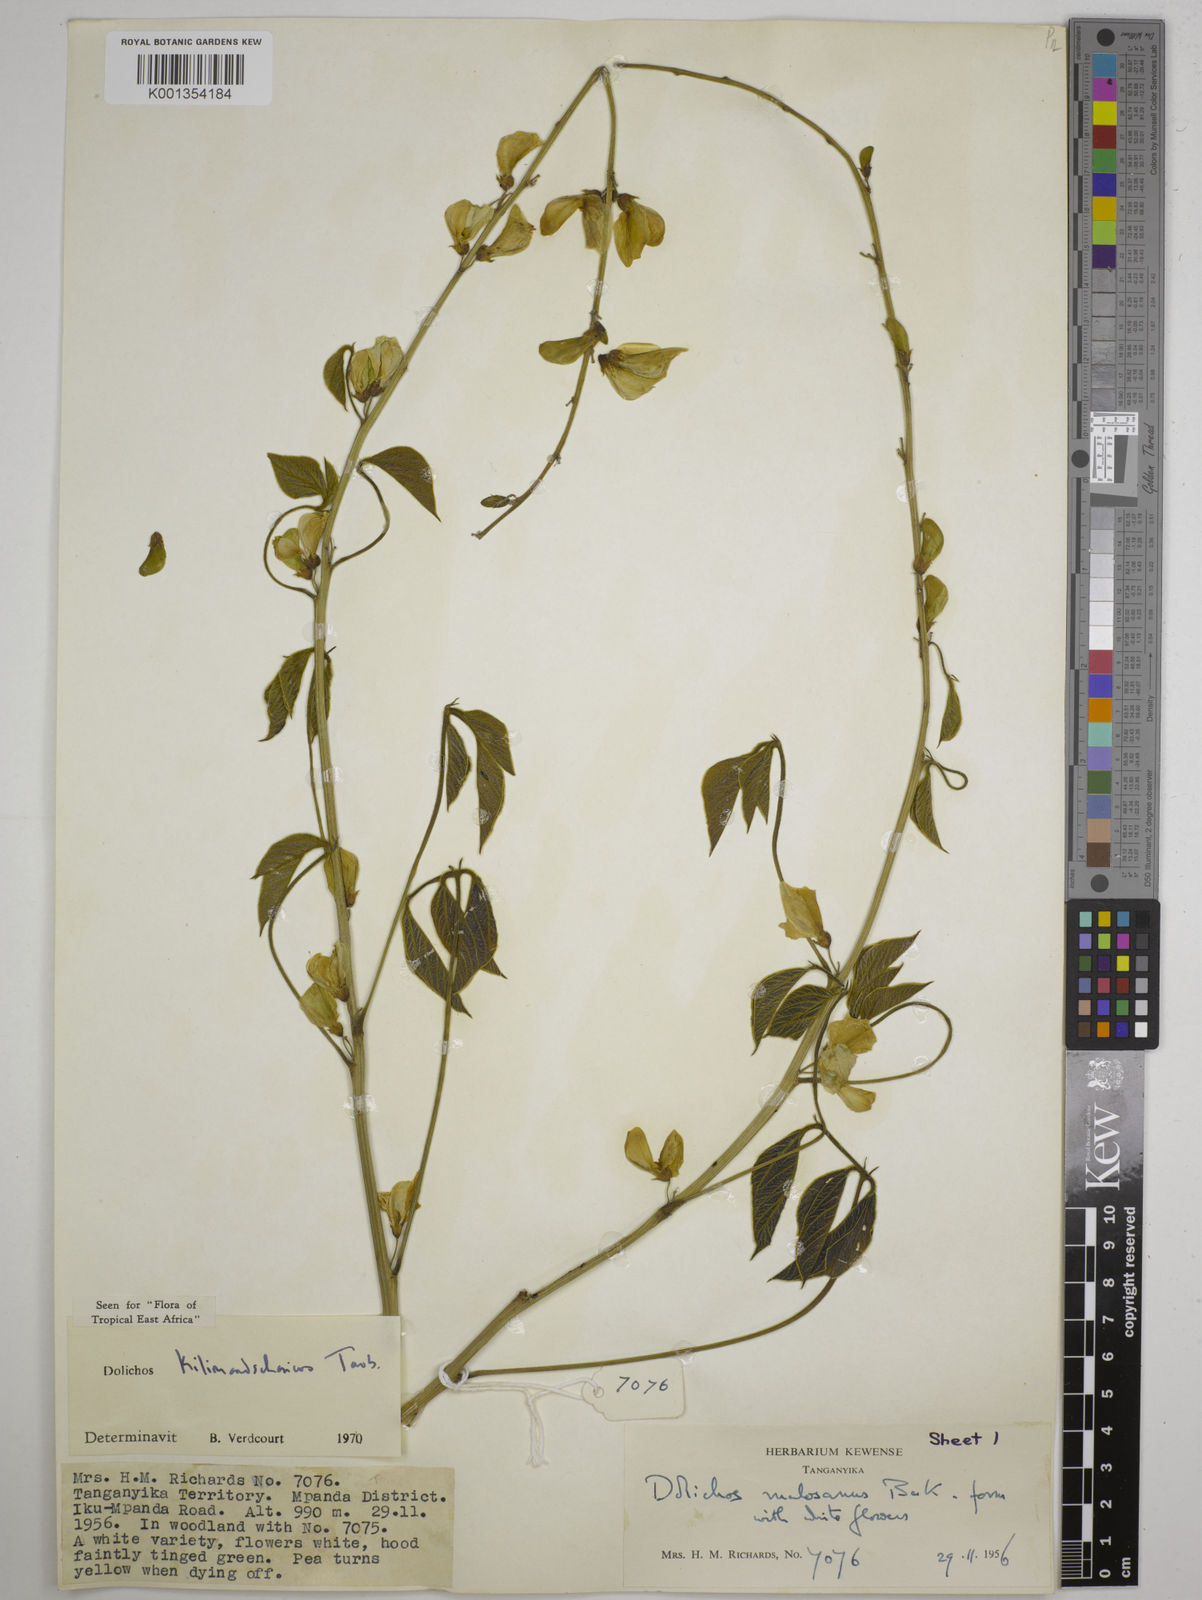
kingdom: Plantae
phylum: Tracheophyta
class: Magnoliopsida
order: Fabales
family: Fabaceae
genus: Dolichos
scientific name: Dolichos kilimandscharicus
